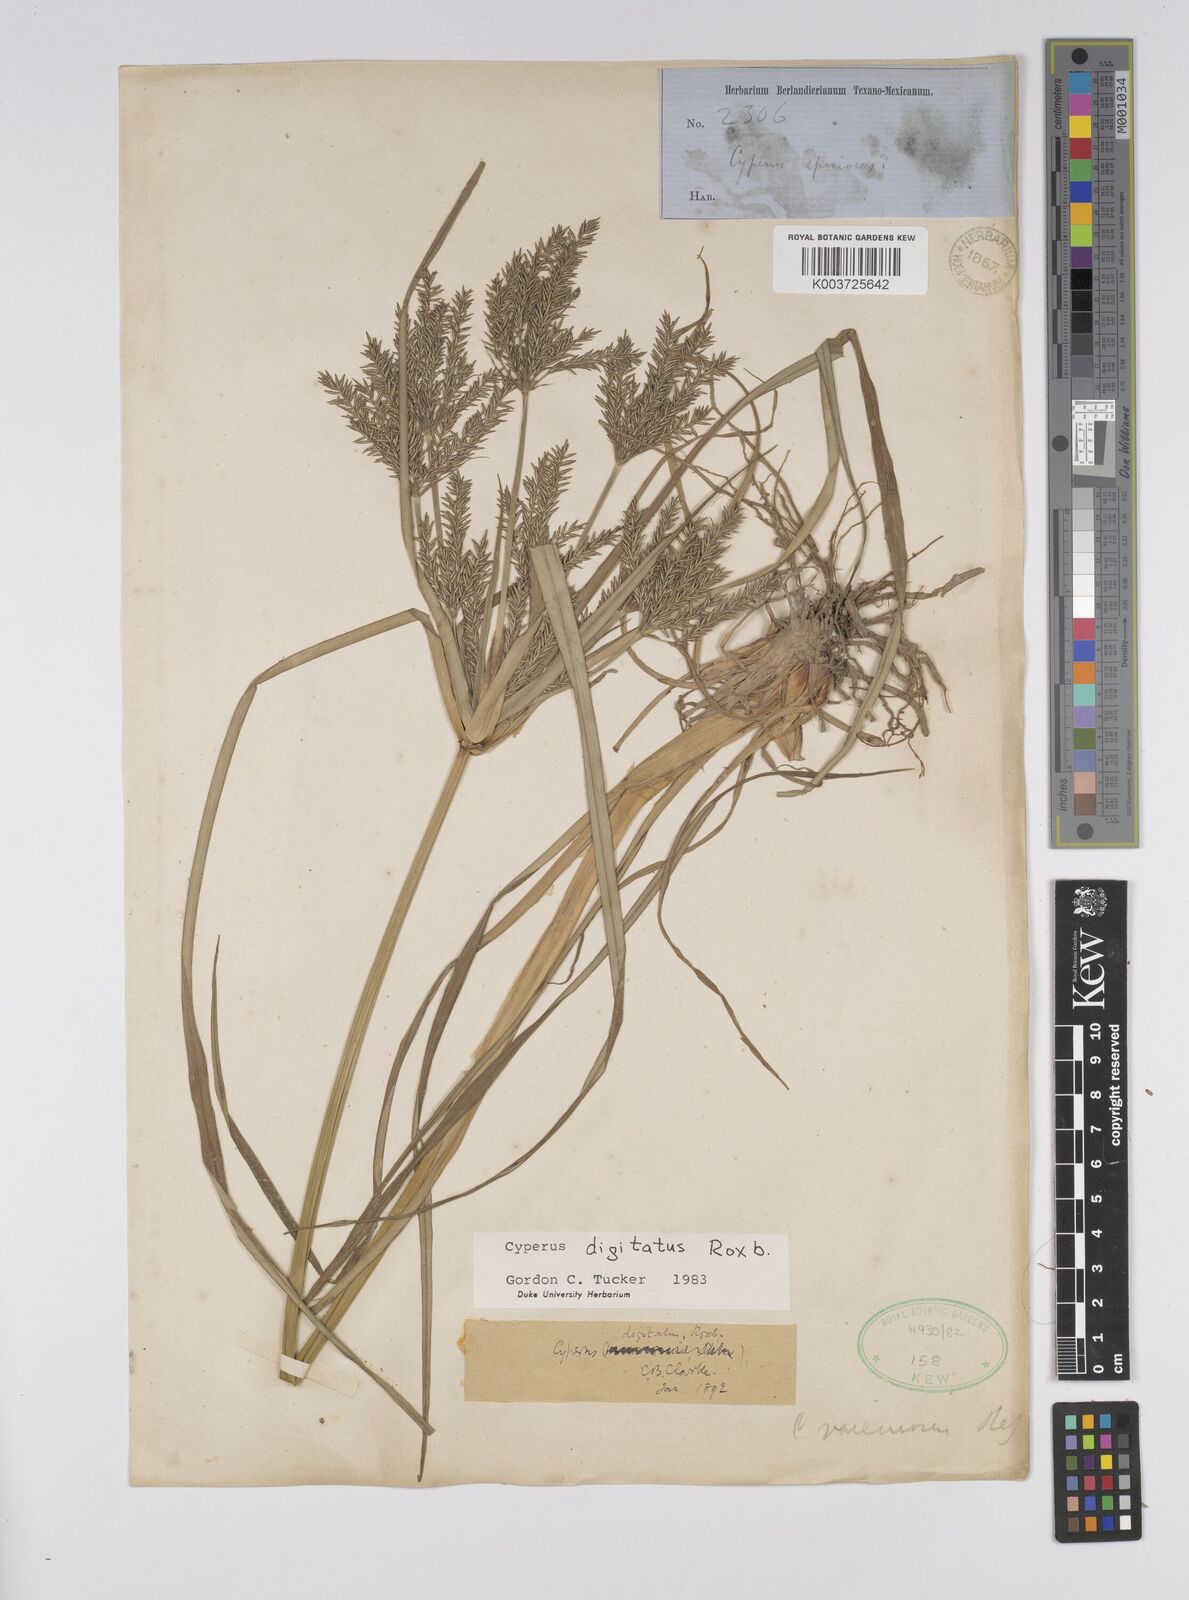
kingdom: Plantae
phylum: Tracheophyta
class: Liliopsida
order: Poales
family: Cyperaceae
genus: Cyperus
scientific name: Cyperus digitatus
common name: Finger flatsedge
